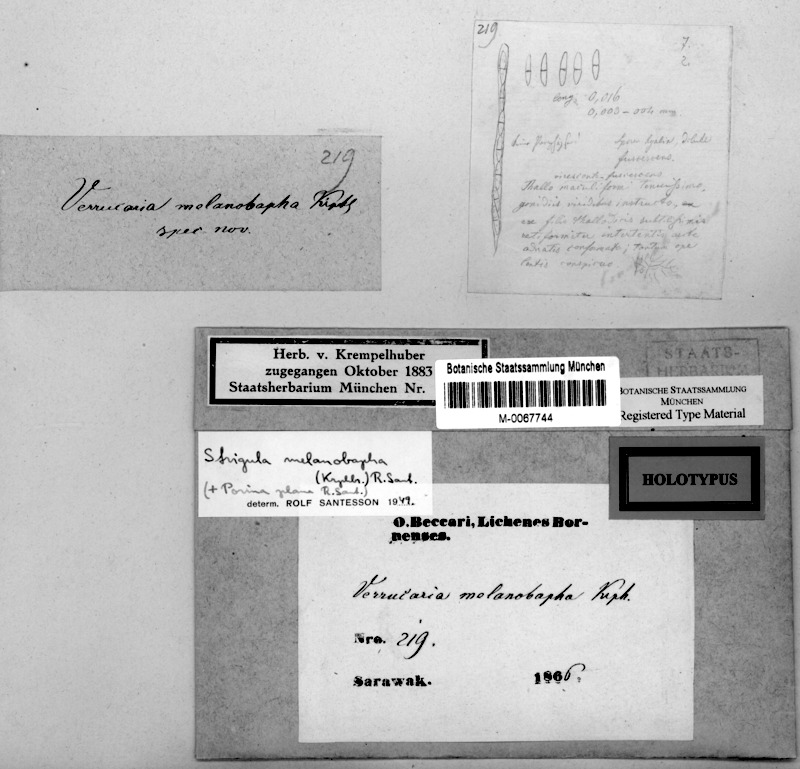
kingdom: Fungi
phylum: Ascomycota
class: Dothideomycetes
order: Strigulales
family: Strigulaceae
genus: Racoplaca
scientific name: Racoplaca melanobapha
